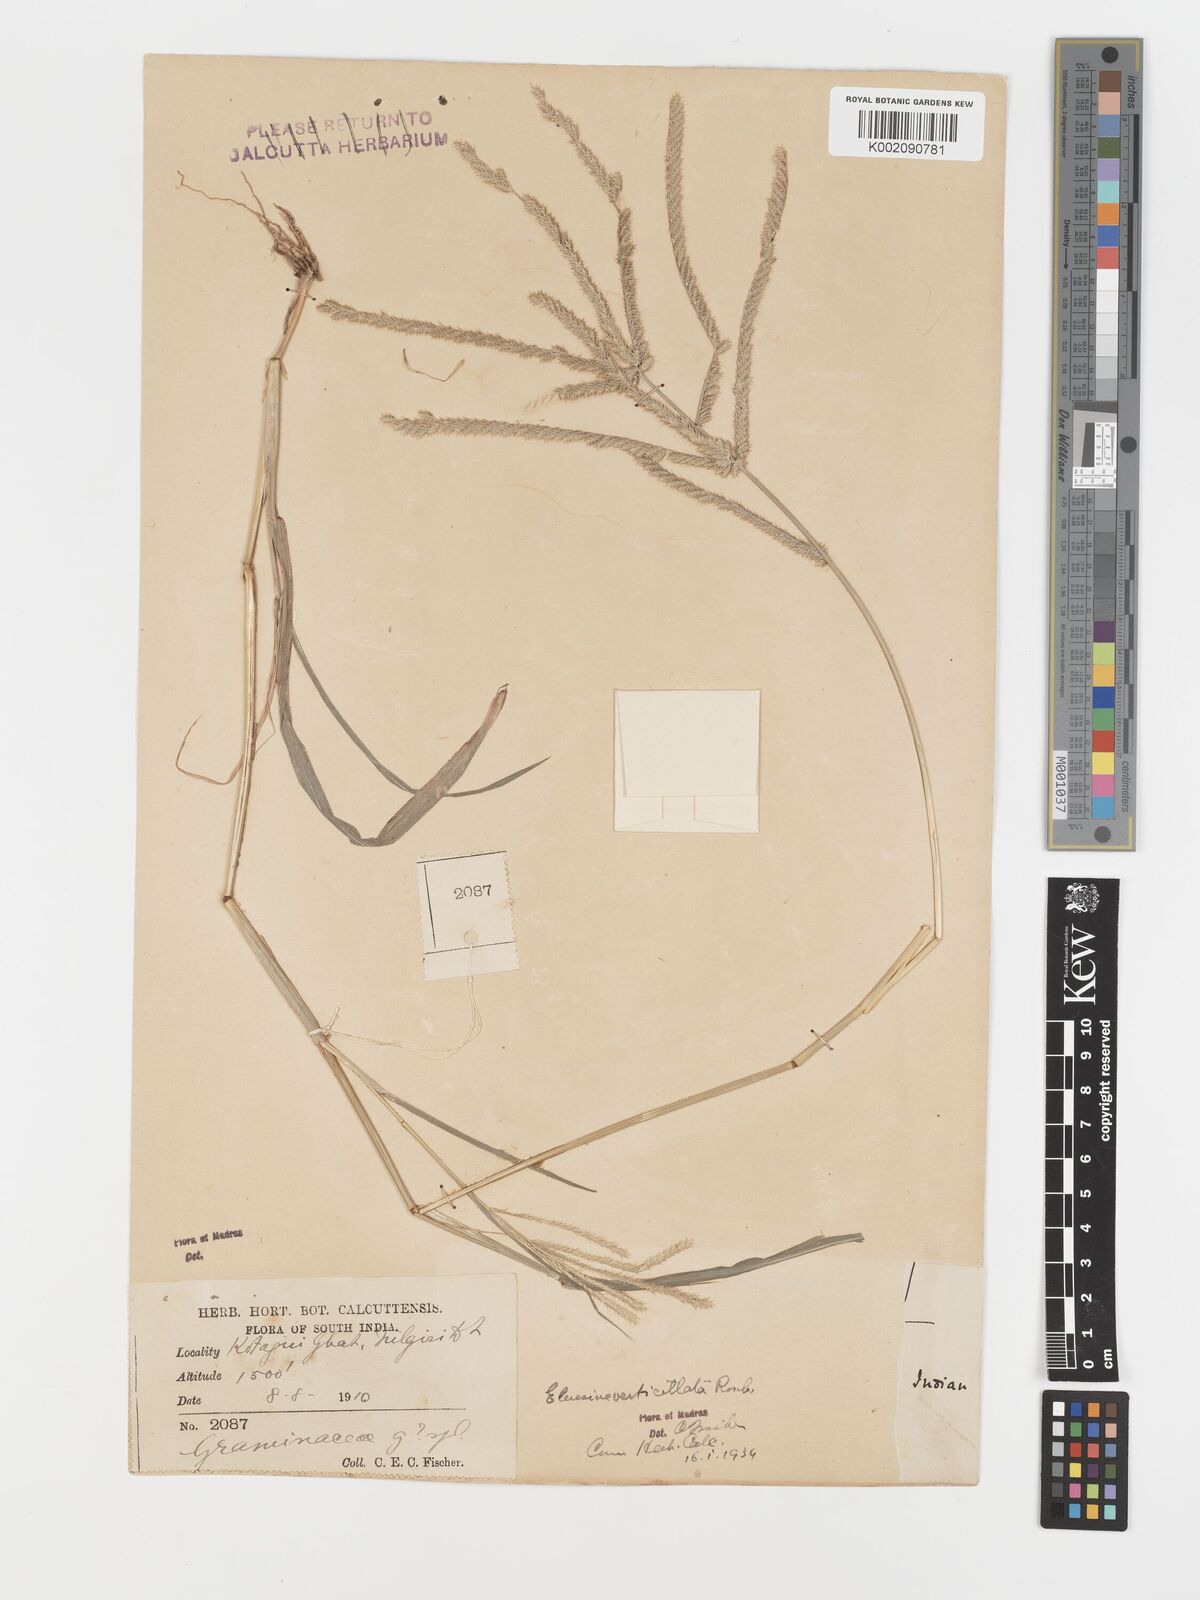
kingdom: Plantae
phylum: Tracheophyta
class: Liliopsida
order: Poales
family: Poaceae
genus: Acrachne
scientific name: Acrachne racemosa
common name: Goosegrass
